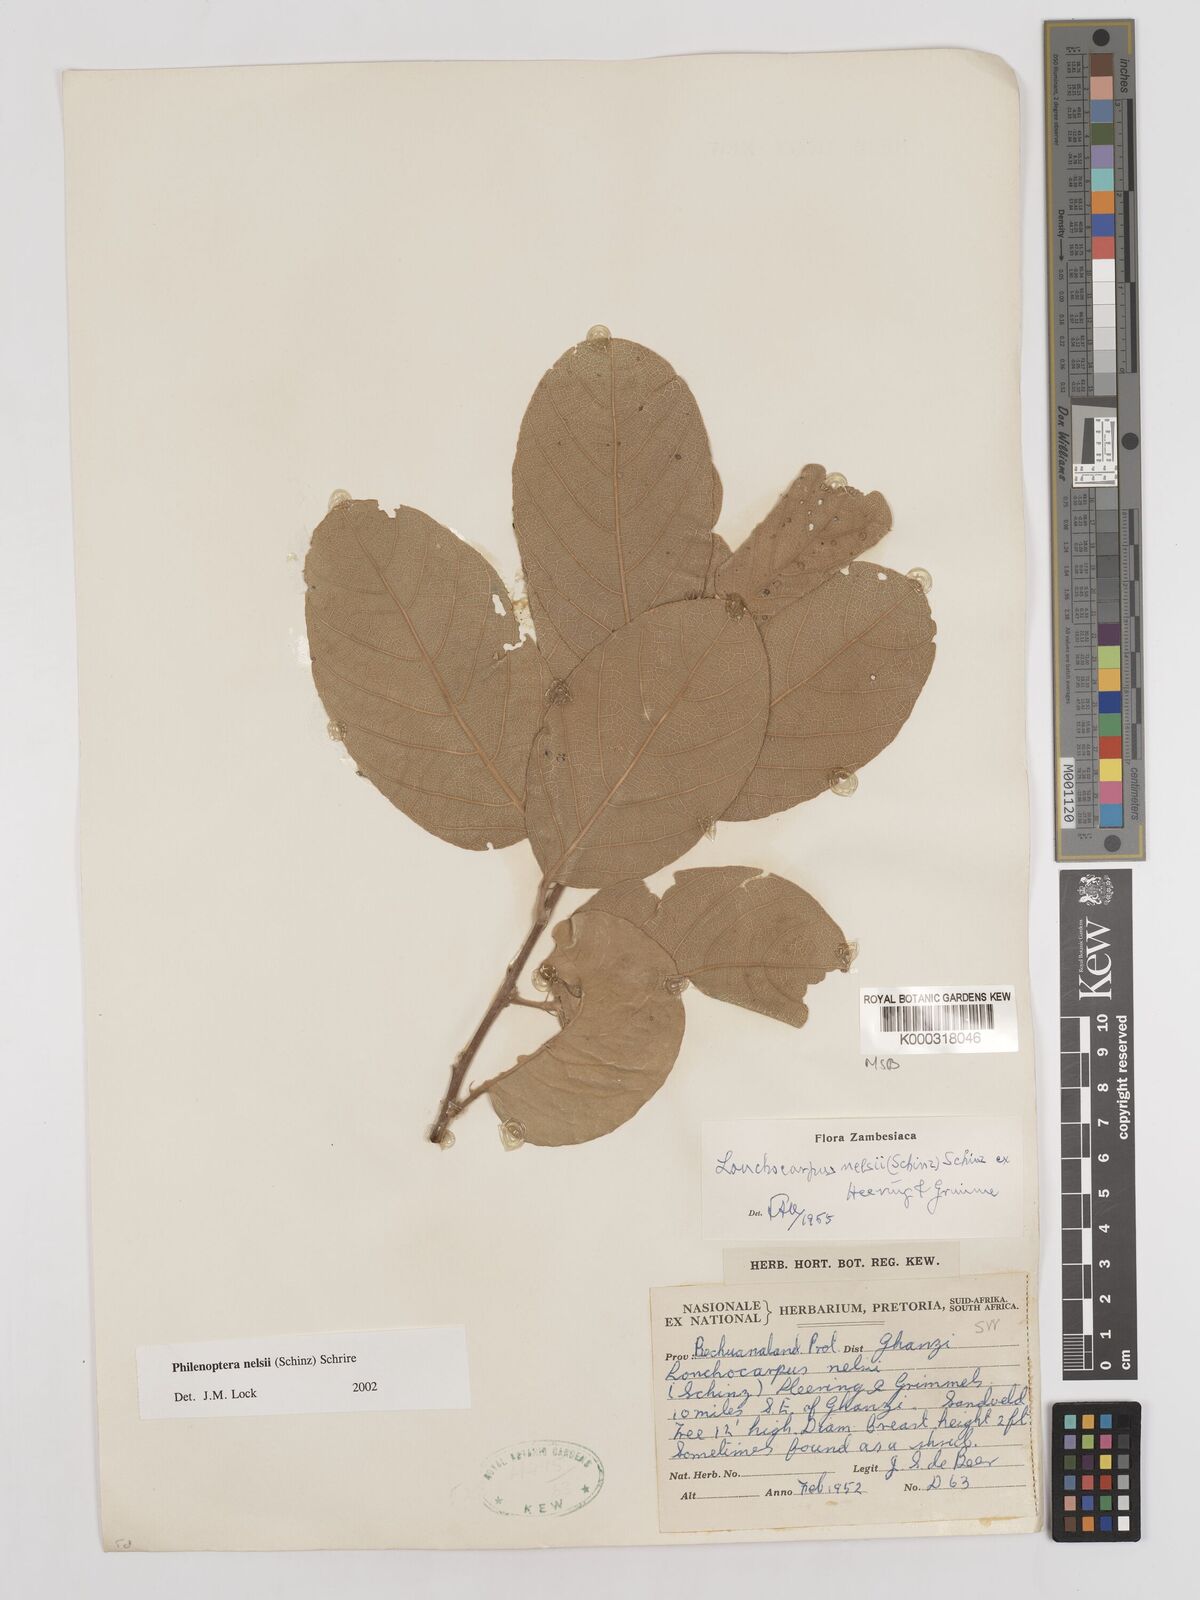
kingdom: Plantae
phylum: Tracheophyta
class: Magnoliopsida
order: Fabales
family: Fabaceae
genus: Philenoptera
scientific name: Philenoptera nelsii
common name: Kalahari apple-leaf
